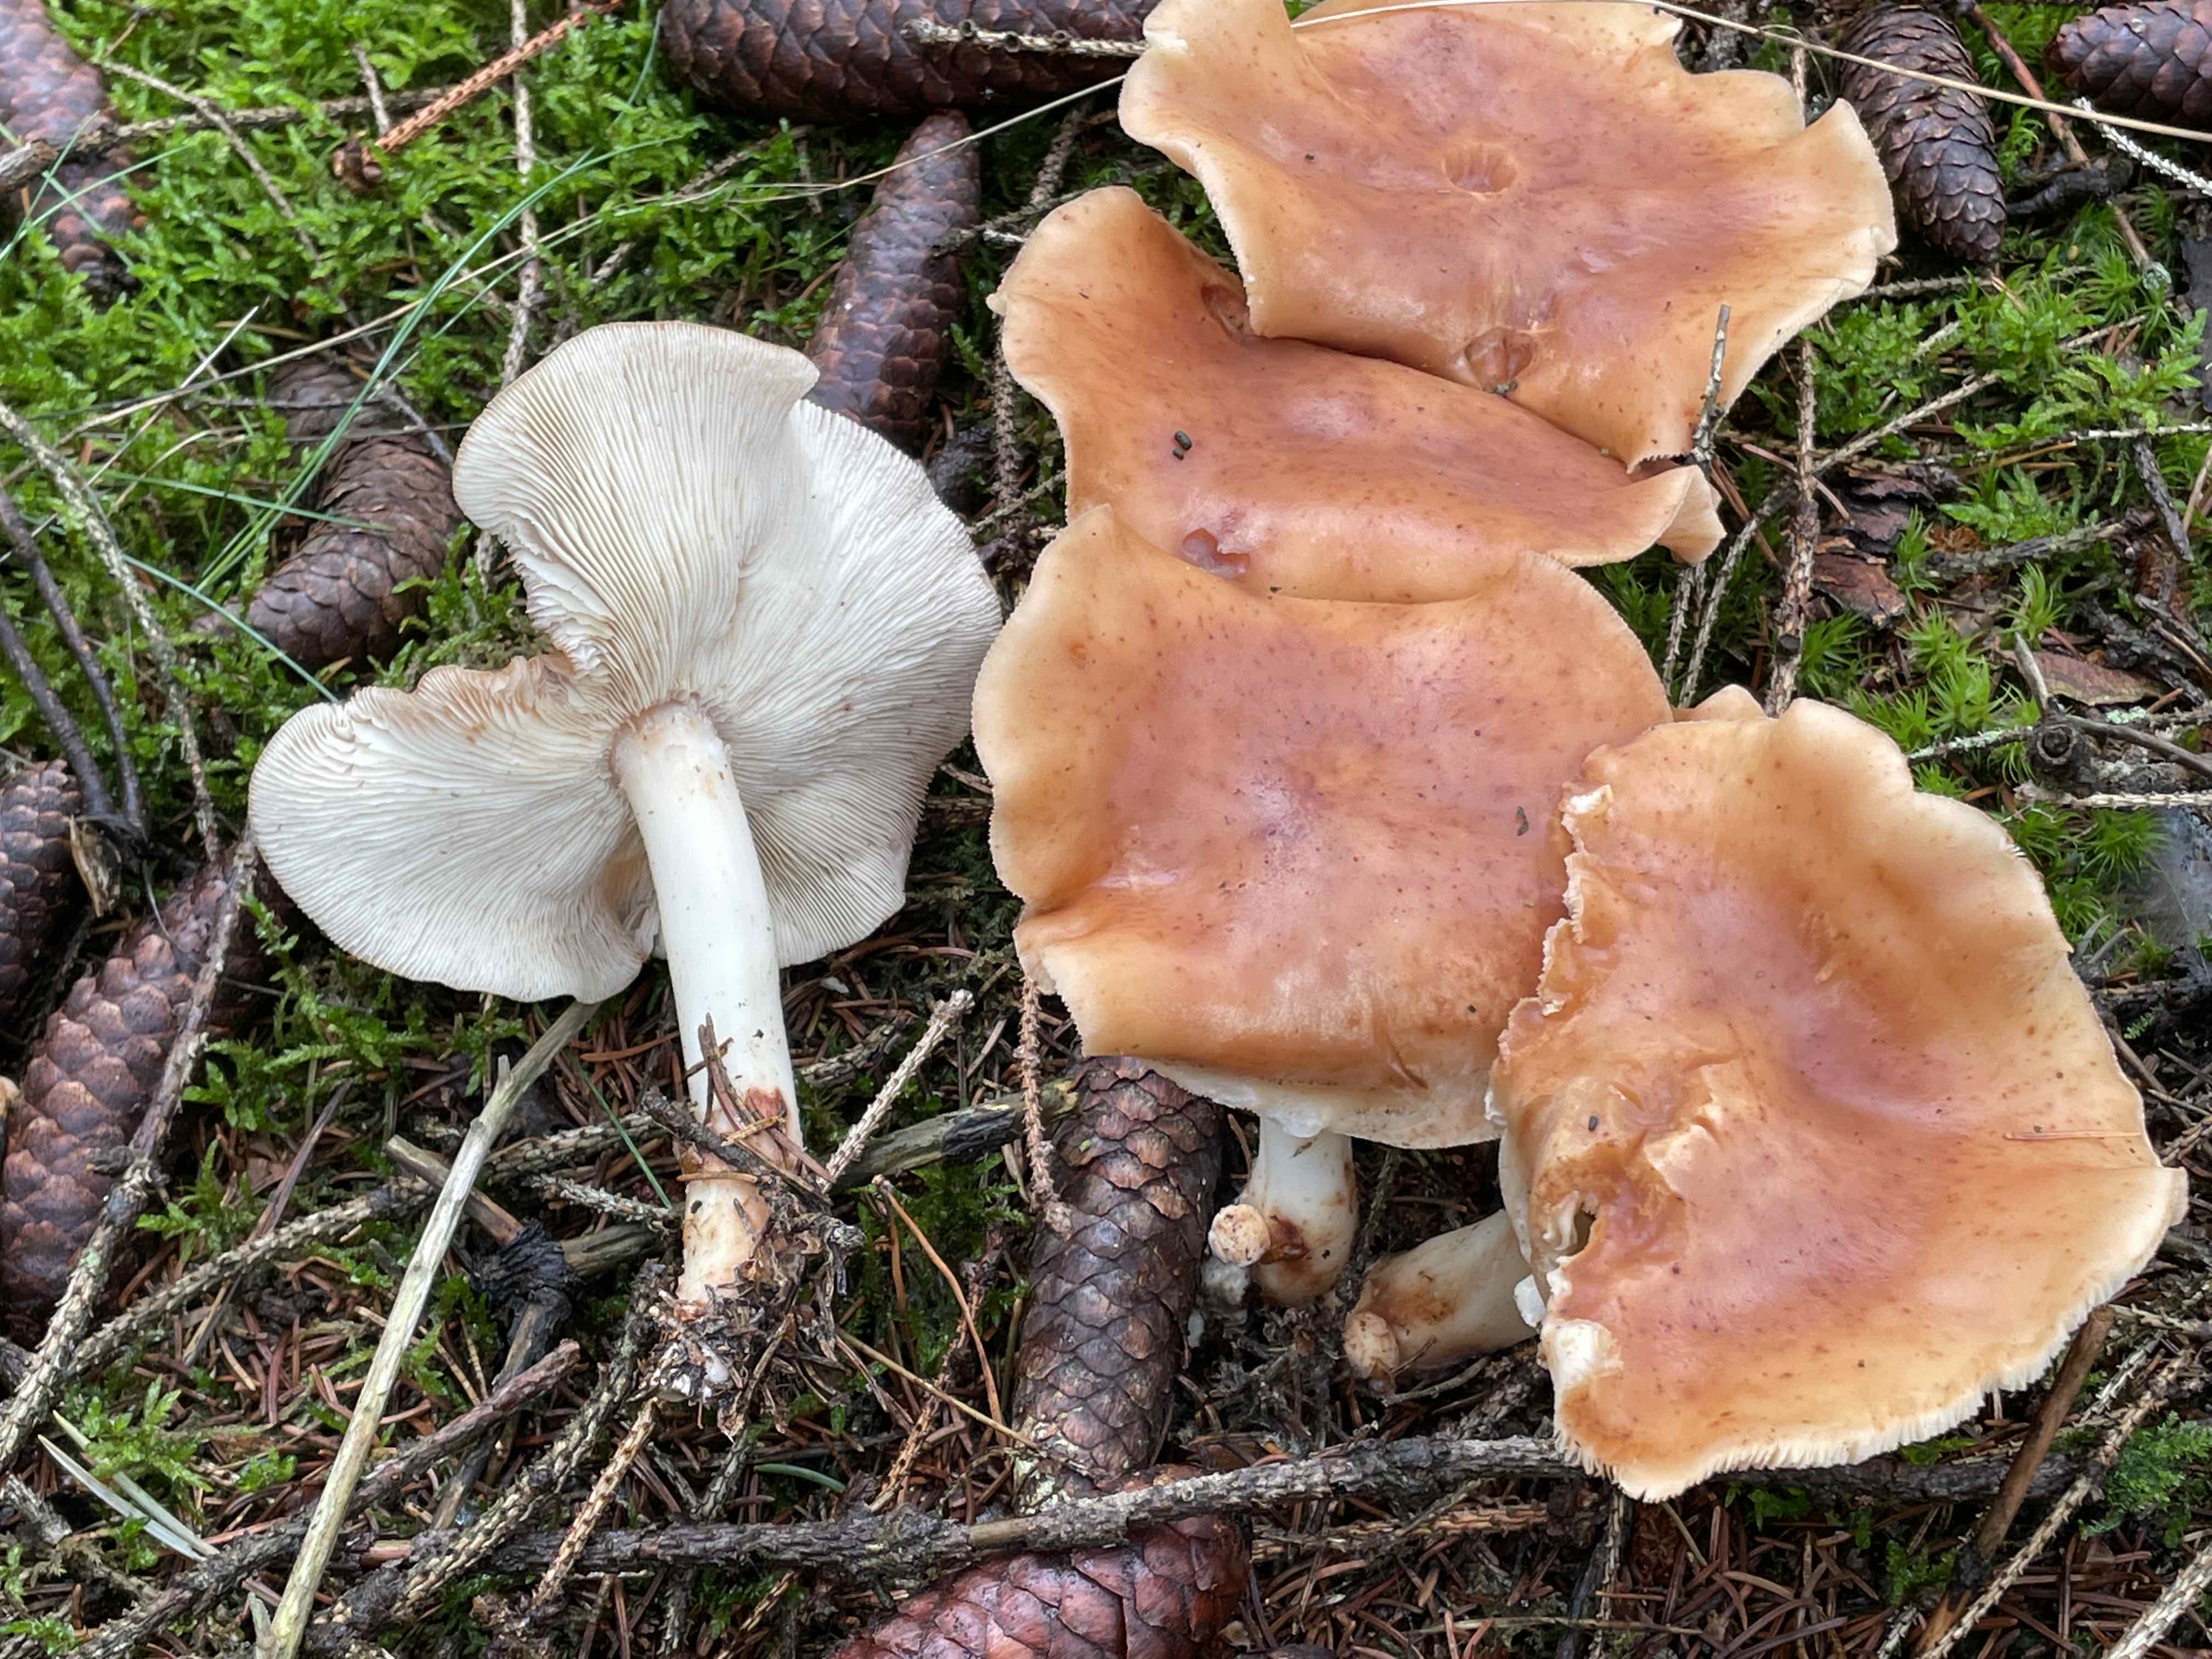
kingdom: Fungi
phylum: Basidiomycota
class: Agaricomycetes
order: Agaricales
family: Omphalotaceae
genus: Rhodocollybia
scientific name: Rhodocollybia maculata
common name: plettet fladhat
